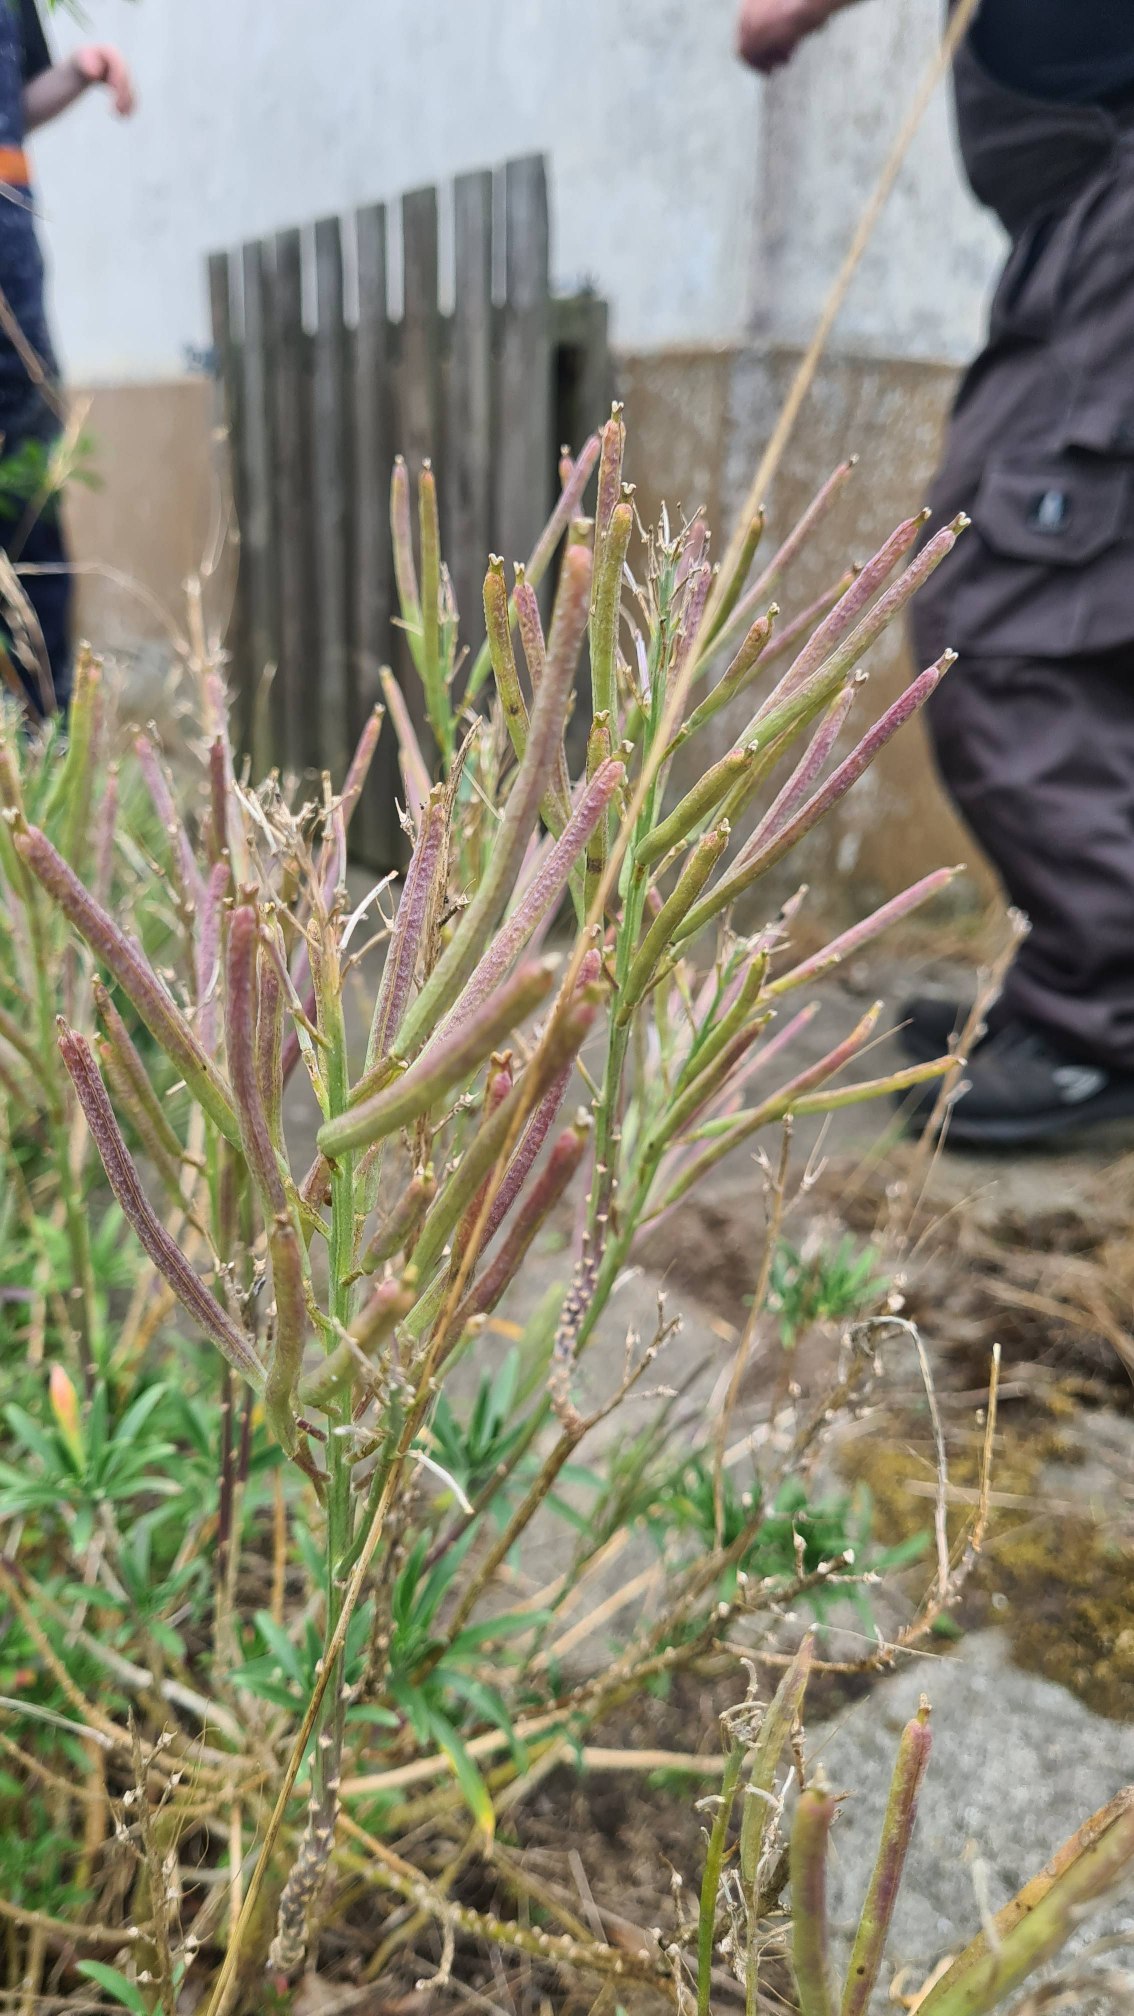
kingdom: Plantae
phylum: Tracheophyta
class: Magnoliopsida
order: Brassicales
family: Brassicaceae
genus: Erysimum
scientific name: Erysimum cheiri
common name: Gyldenlak
